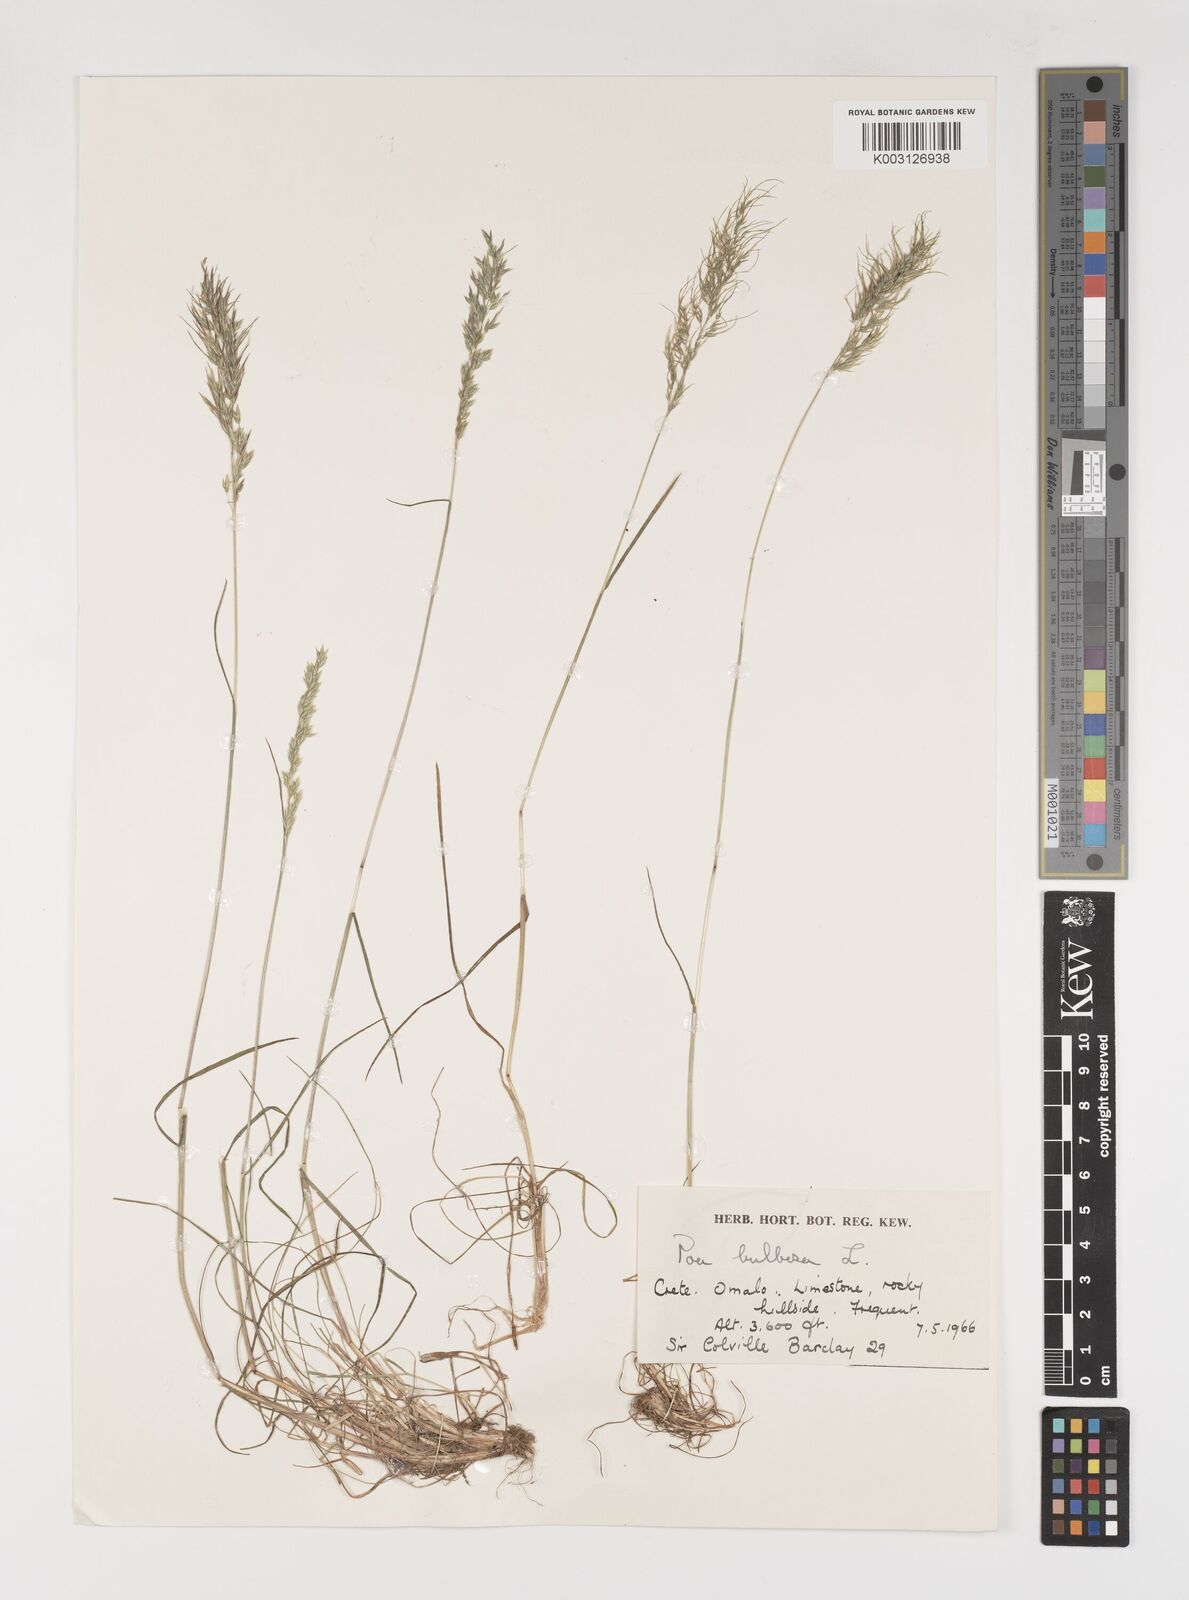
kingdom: Plantae
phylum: Tracheophyta
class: Liliopsida
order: Poales
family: Poaceae
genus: Poa
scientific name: Poa bulbosa
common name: Bulbous bluegrass
